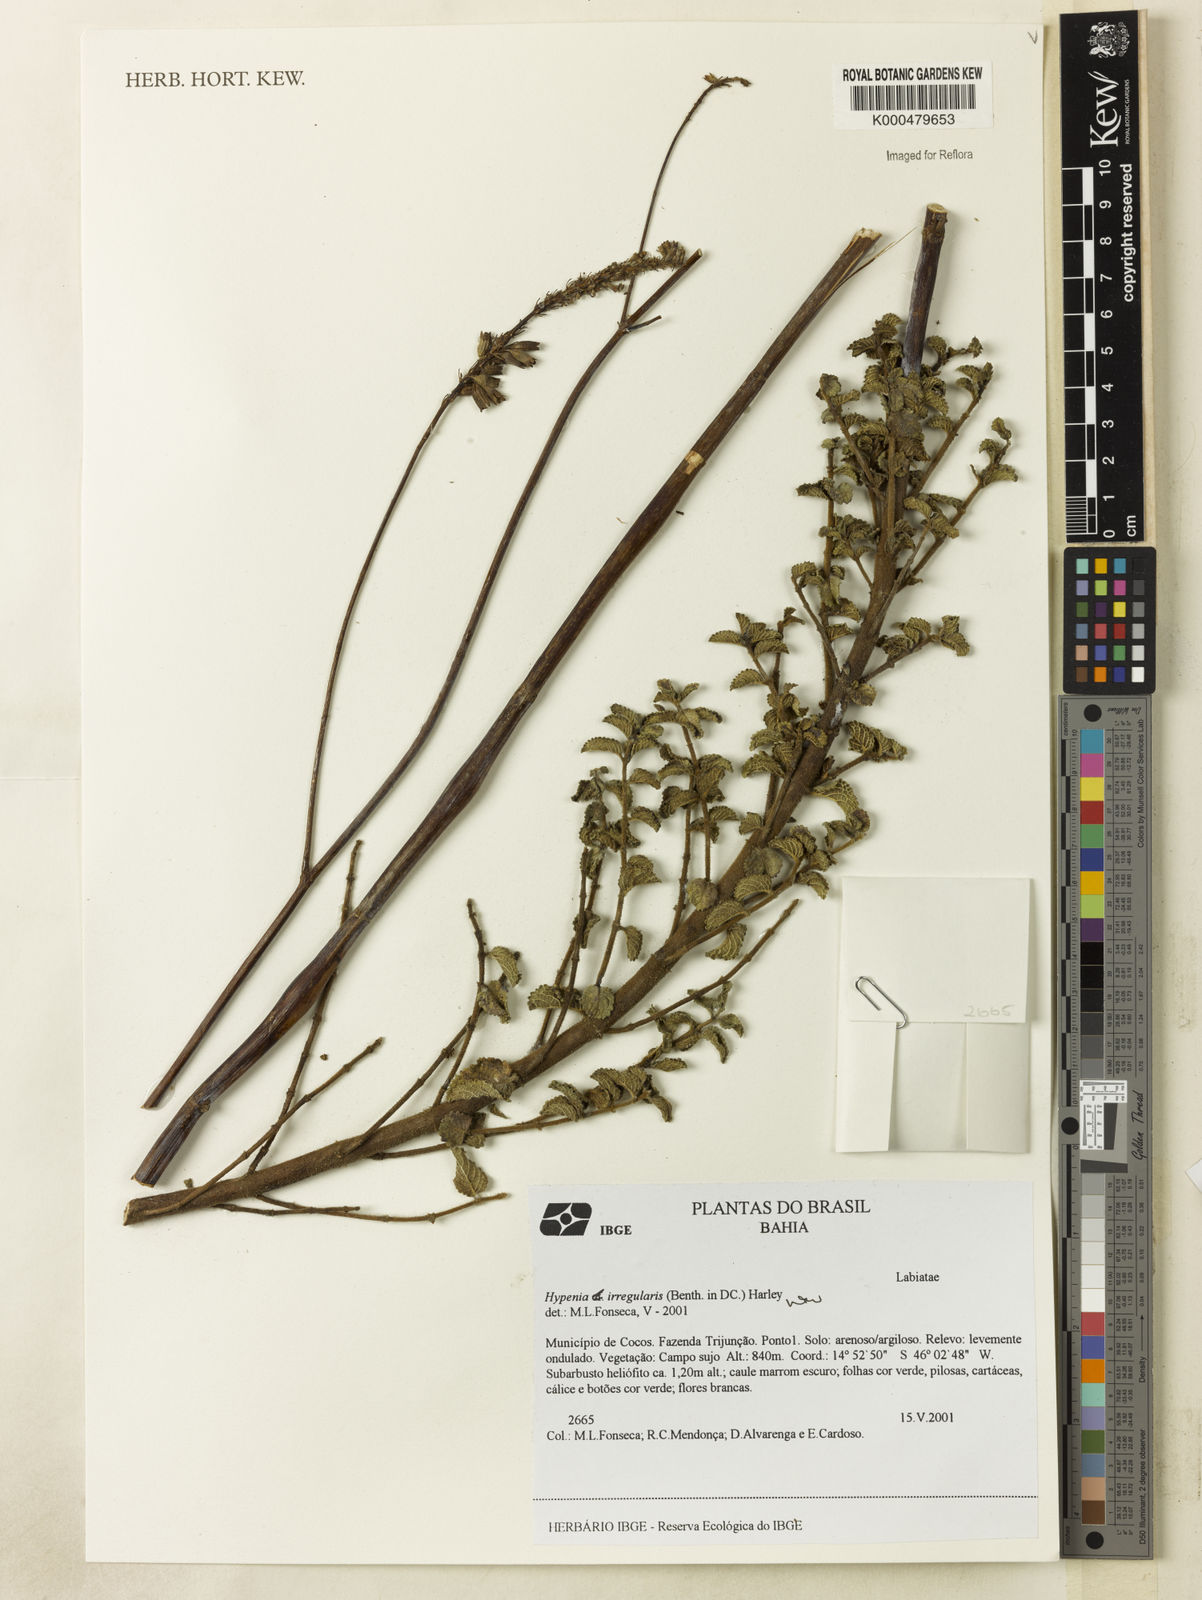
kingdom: Plantae
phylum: Tracheophyta
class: Magnoliopsida
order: Lamiales
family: Lamiaceae
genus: Hypenia
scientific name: Hypenia irregularis
